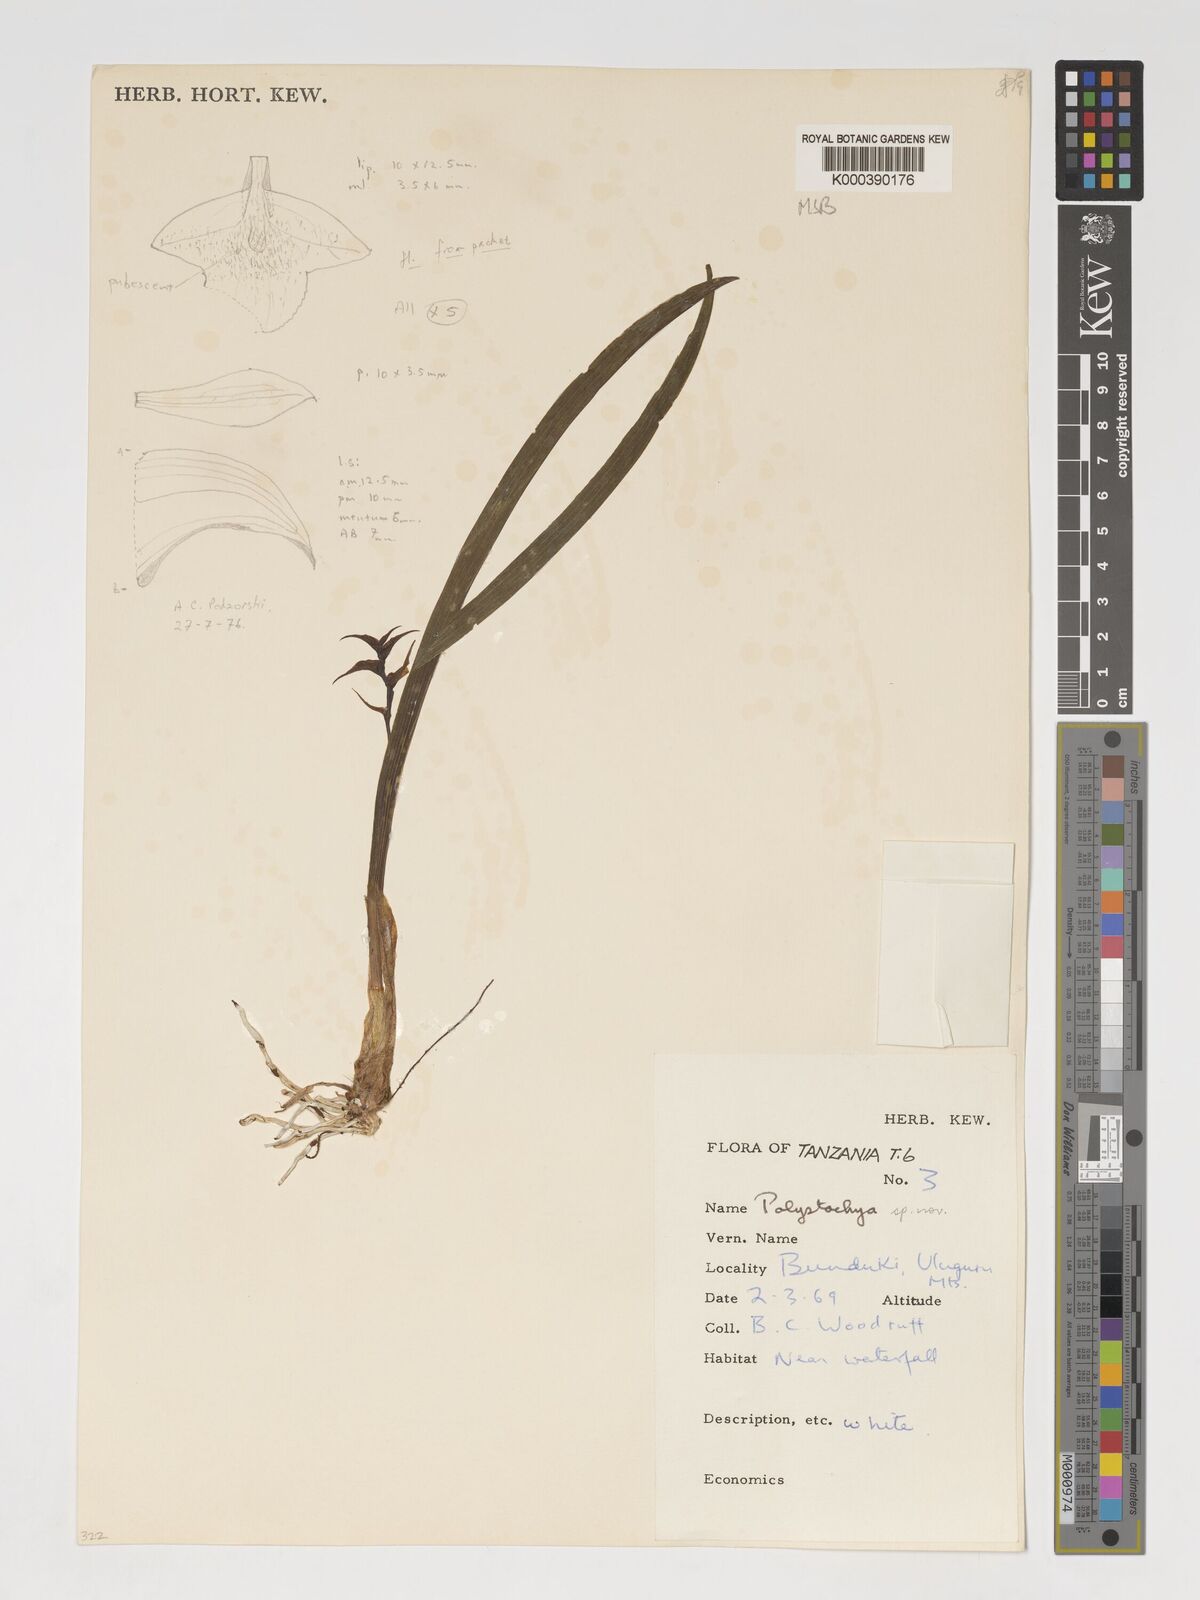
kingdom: Plantae
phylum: Tracheophyta
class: Liliopsida
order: Asparagales
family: Orchidaceae
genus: Polystachya
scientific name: Polystachya subdiphylla
